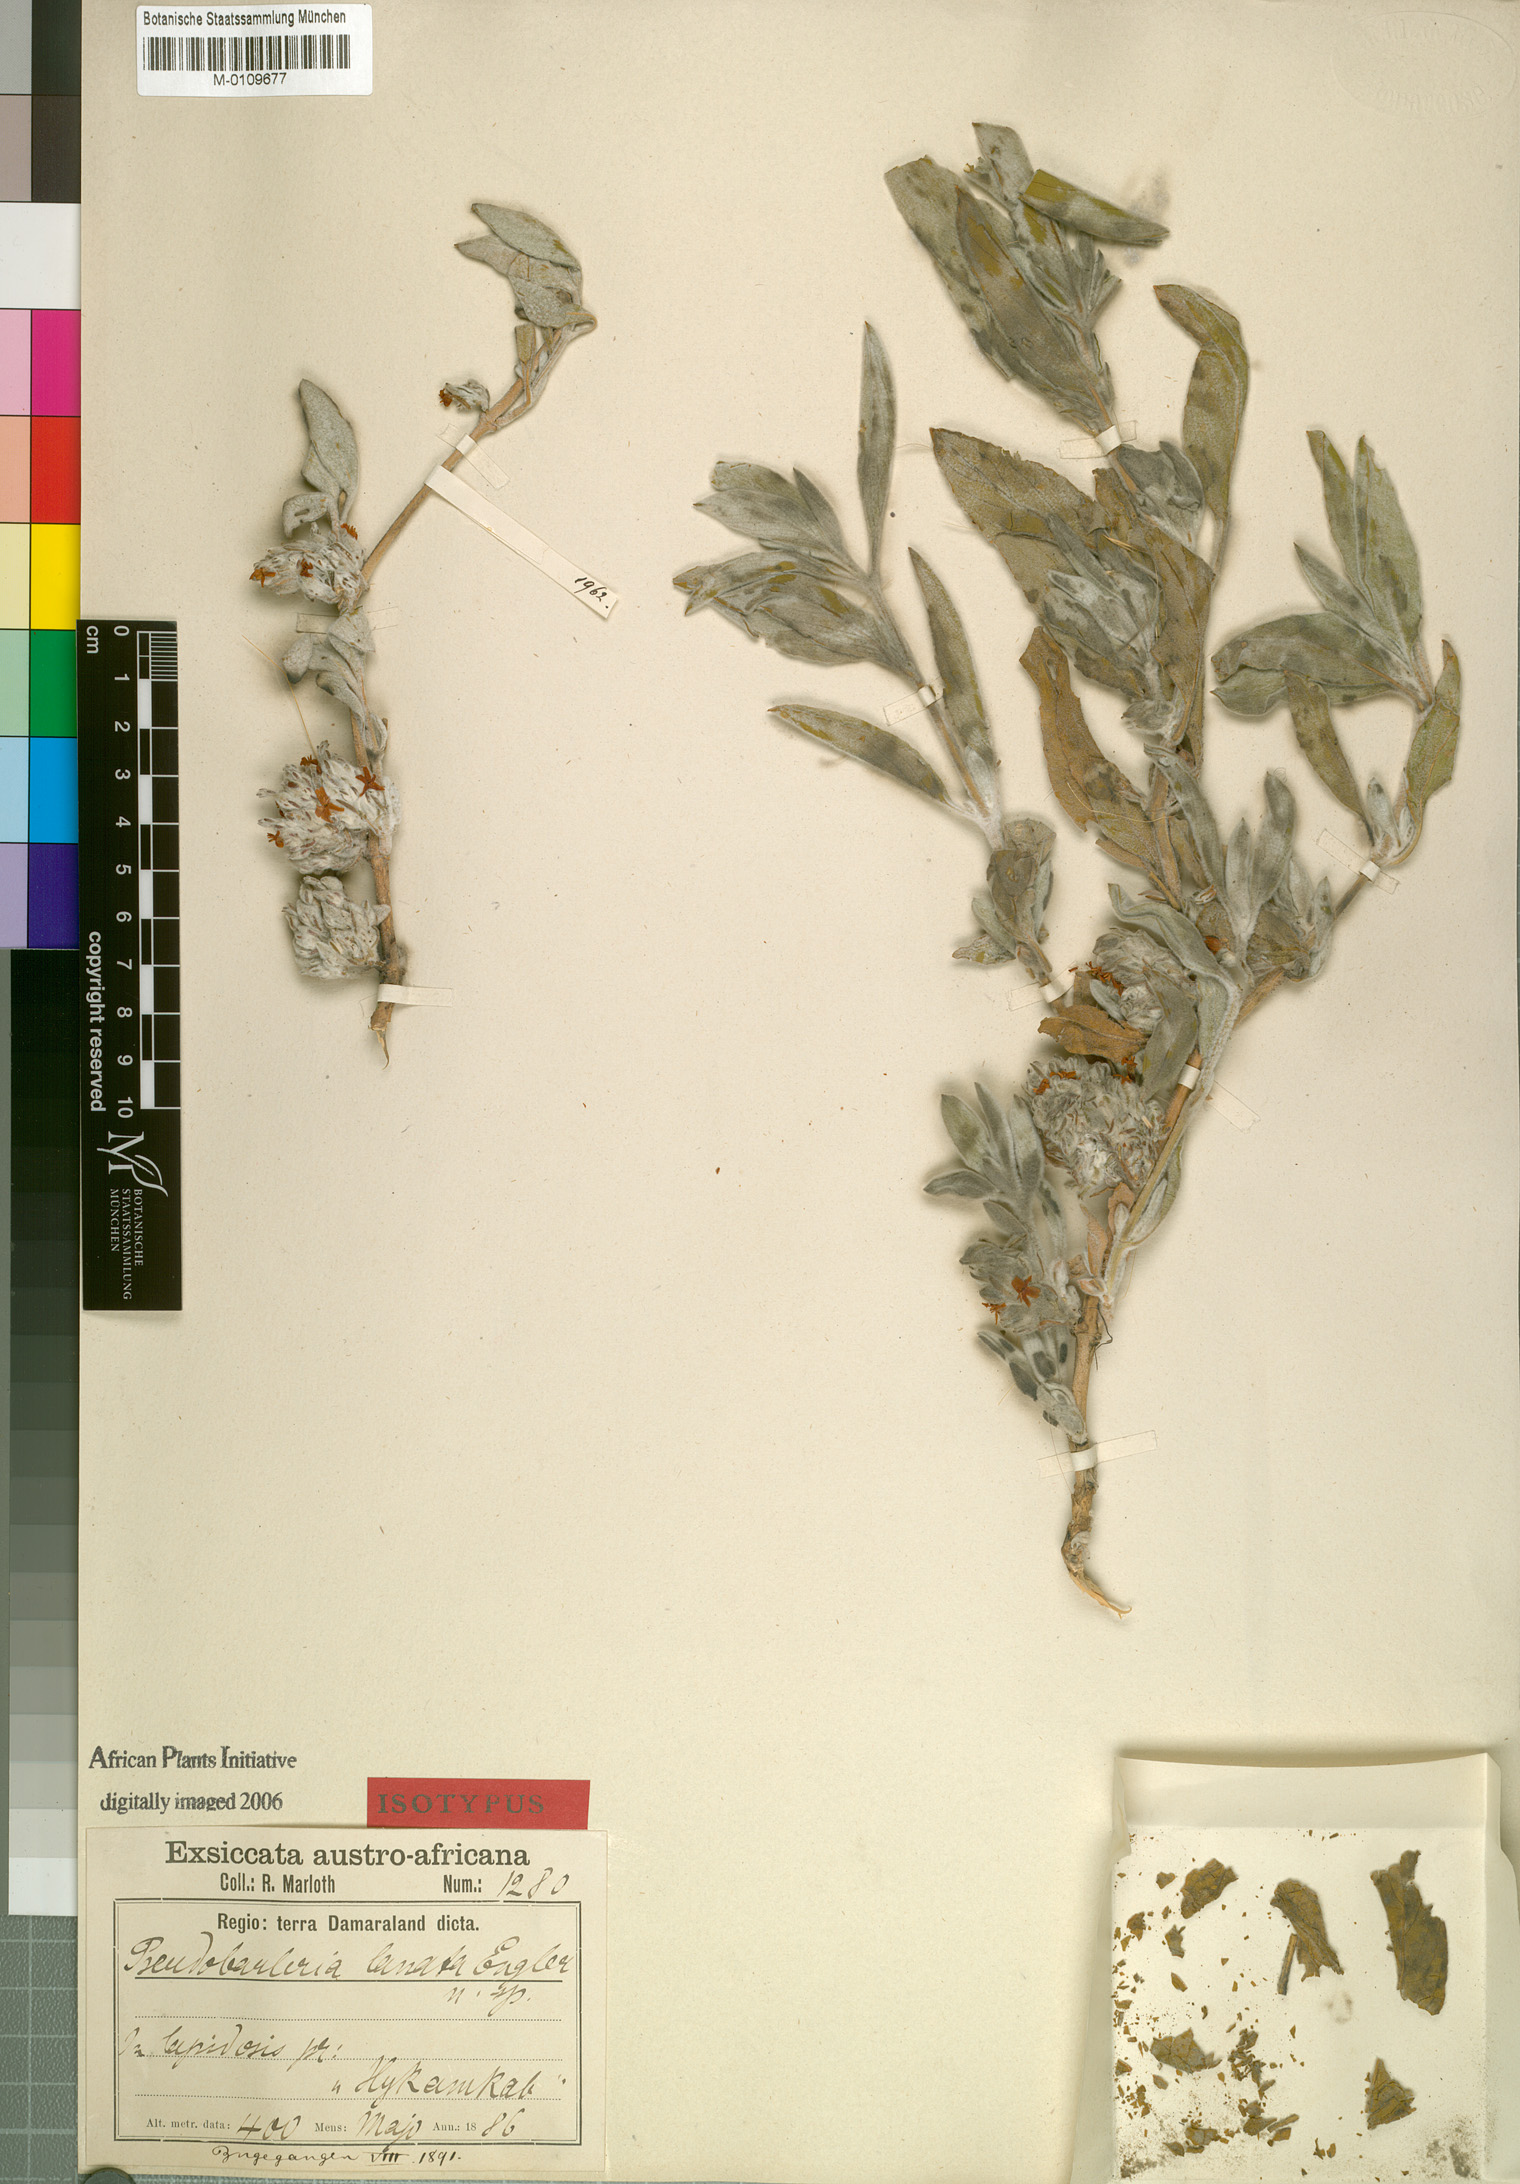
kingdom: Plantae
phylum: Tracheophyta
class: Magnoliopsida
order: Lamiales
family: Acanthaceae
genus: Petalidium
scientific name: Petalidium lanatum
